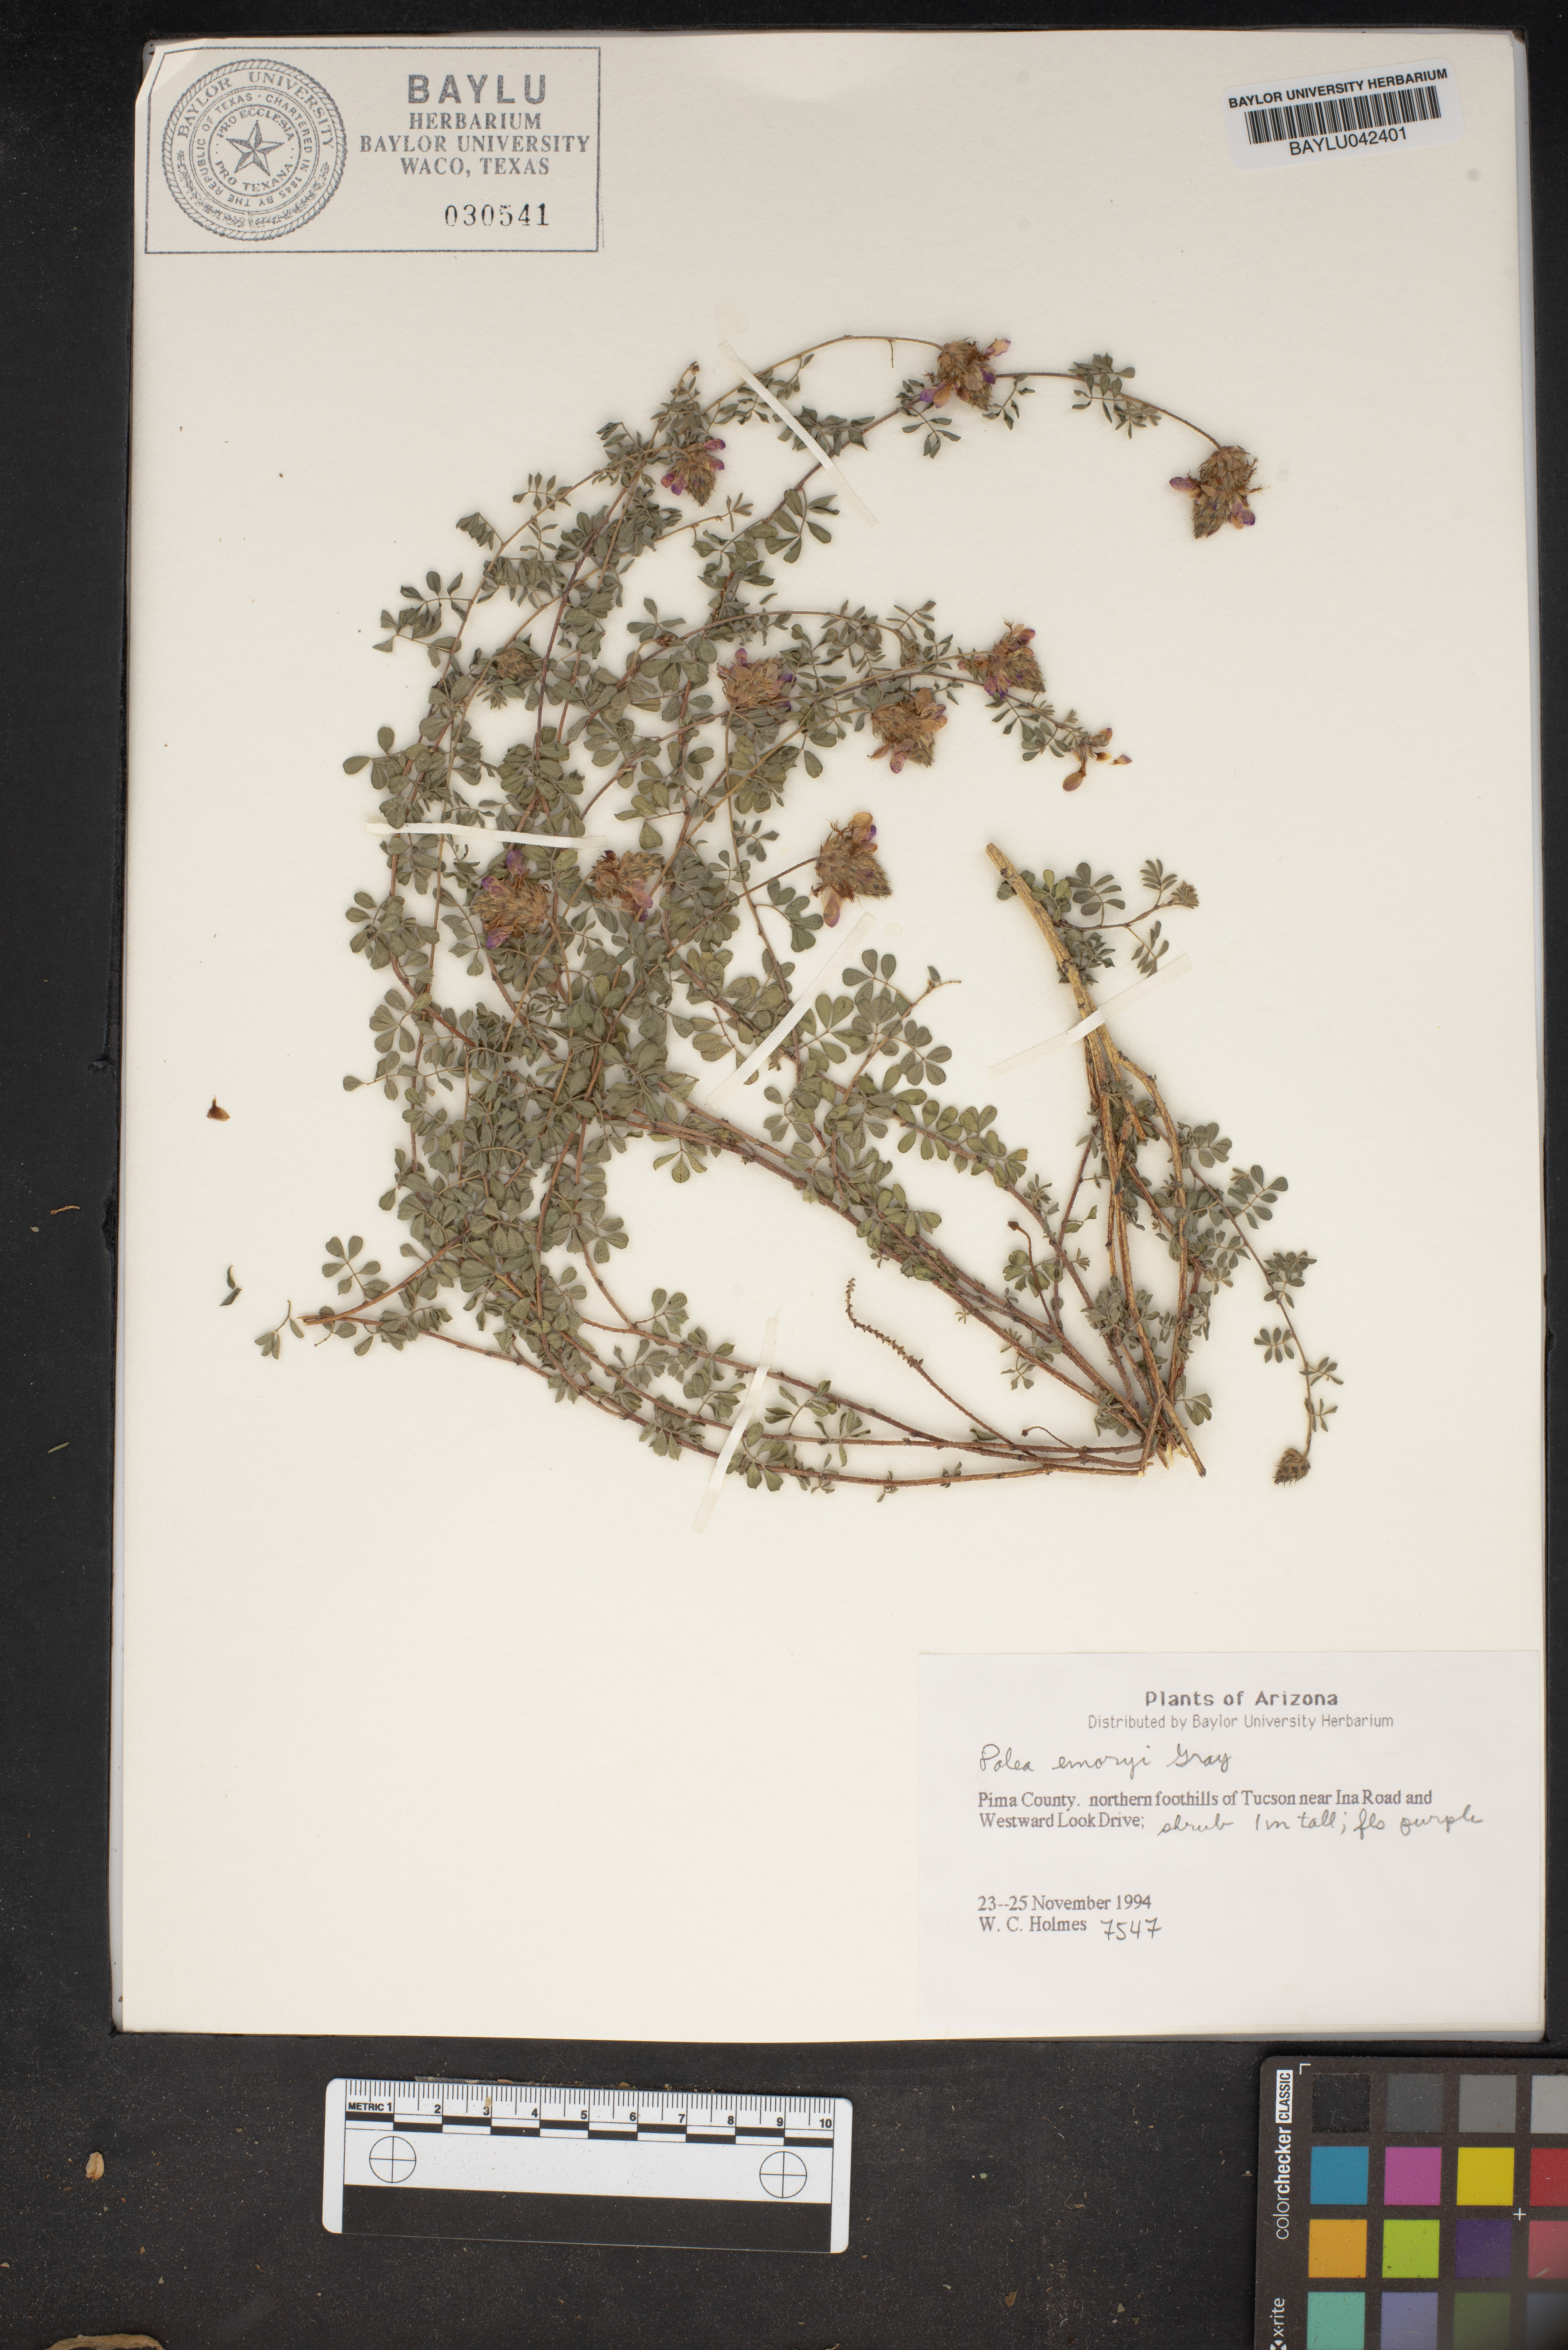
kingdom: Plantae
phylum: Tracheophyta
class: Magnoliopsida
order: Fabales
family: Fabaceae
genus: Psorothamnus
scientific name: Psorothamnus emoryi
